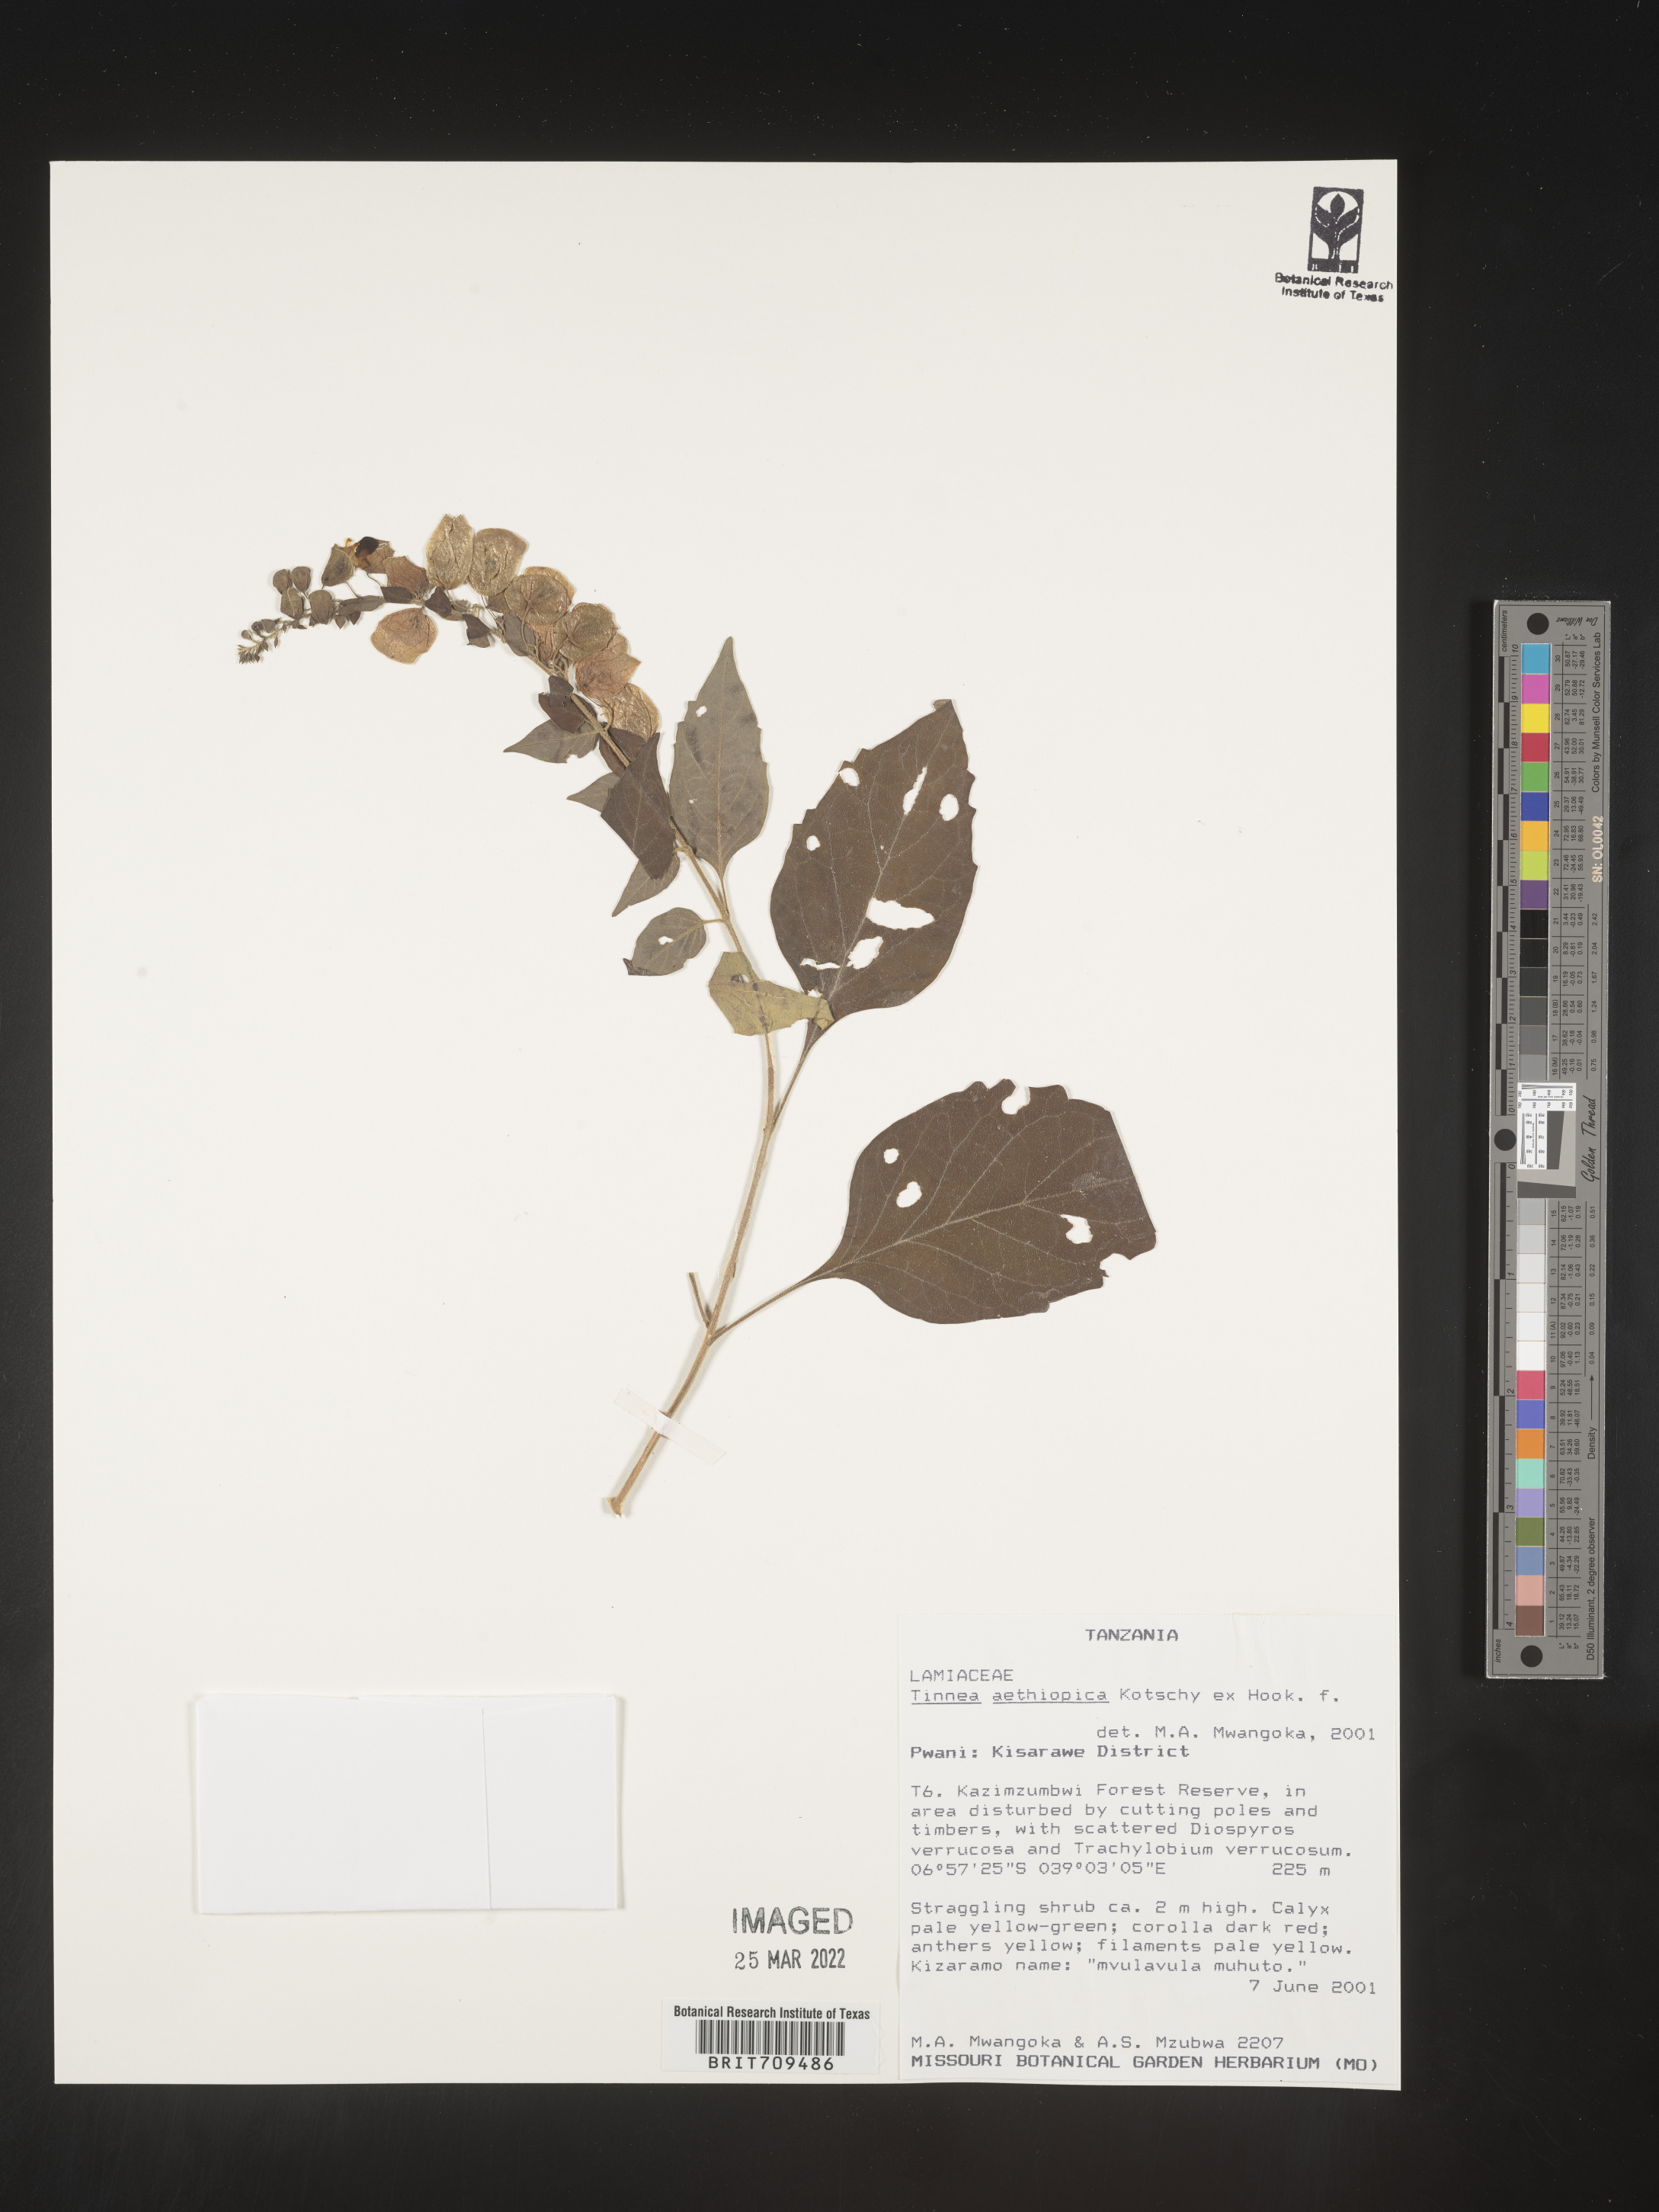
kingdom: Plantae
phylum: Tracheophyta
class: Magnoliopsida
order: Lamiales
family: Lamiaceae
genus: Tinnea
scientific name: Tinnea
